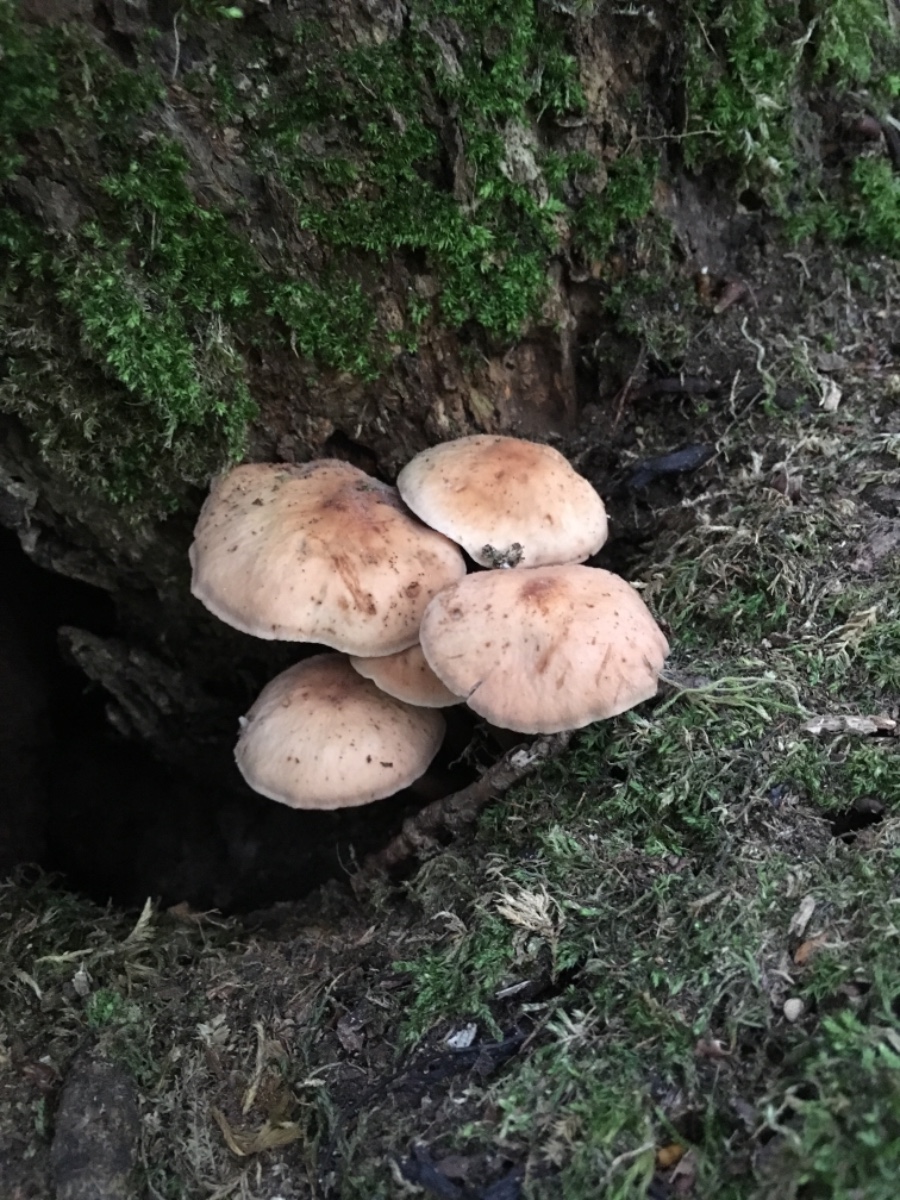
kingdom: Fungi
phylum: Basidiomycota
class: Agaricomycetes
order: Agaricales
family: Omphalotaceae
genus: Gymnopus
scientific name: Gymnopus fusipes
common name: tenstokket fladhat
